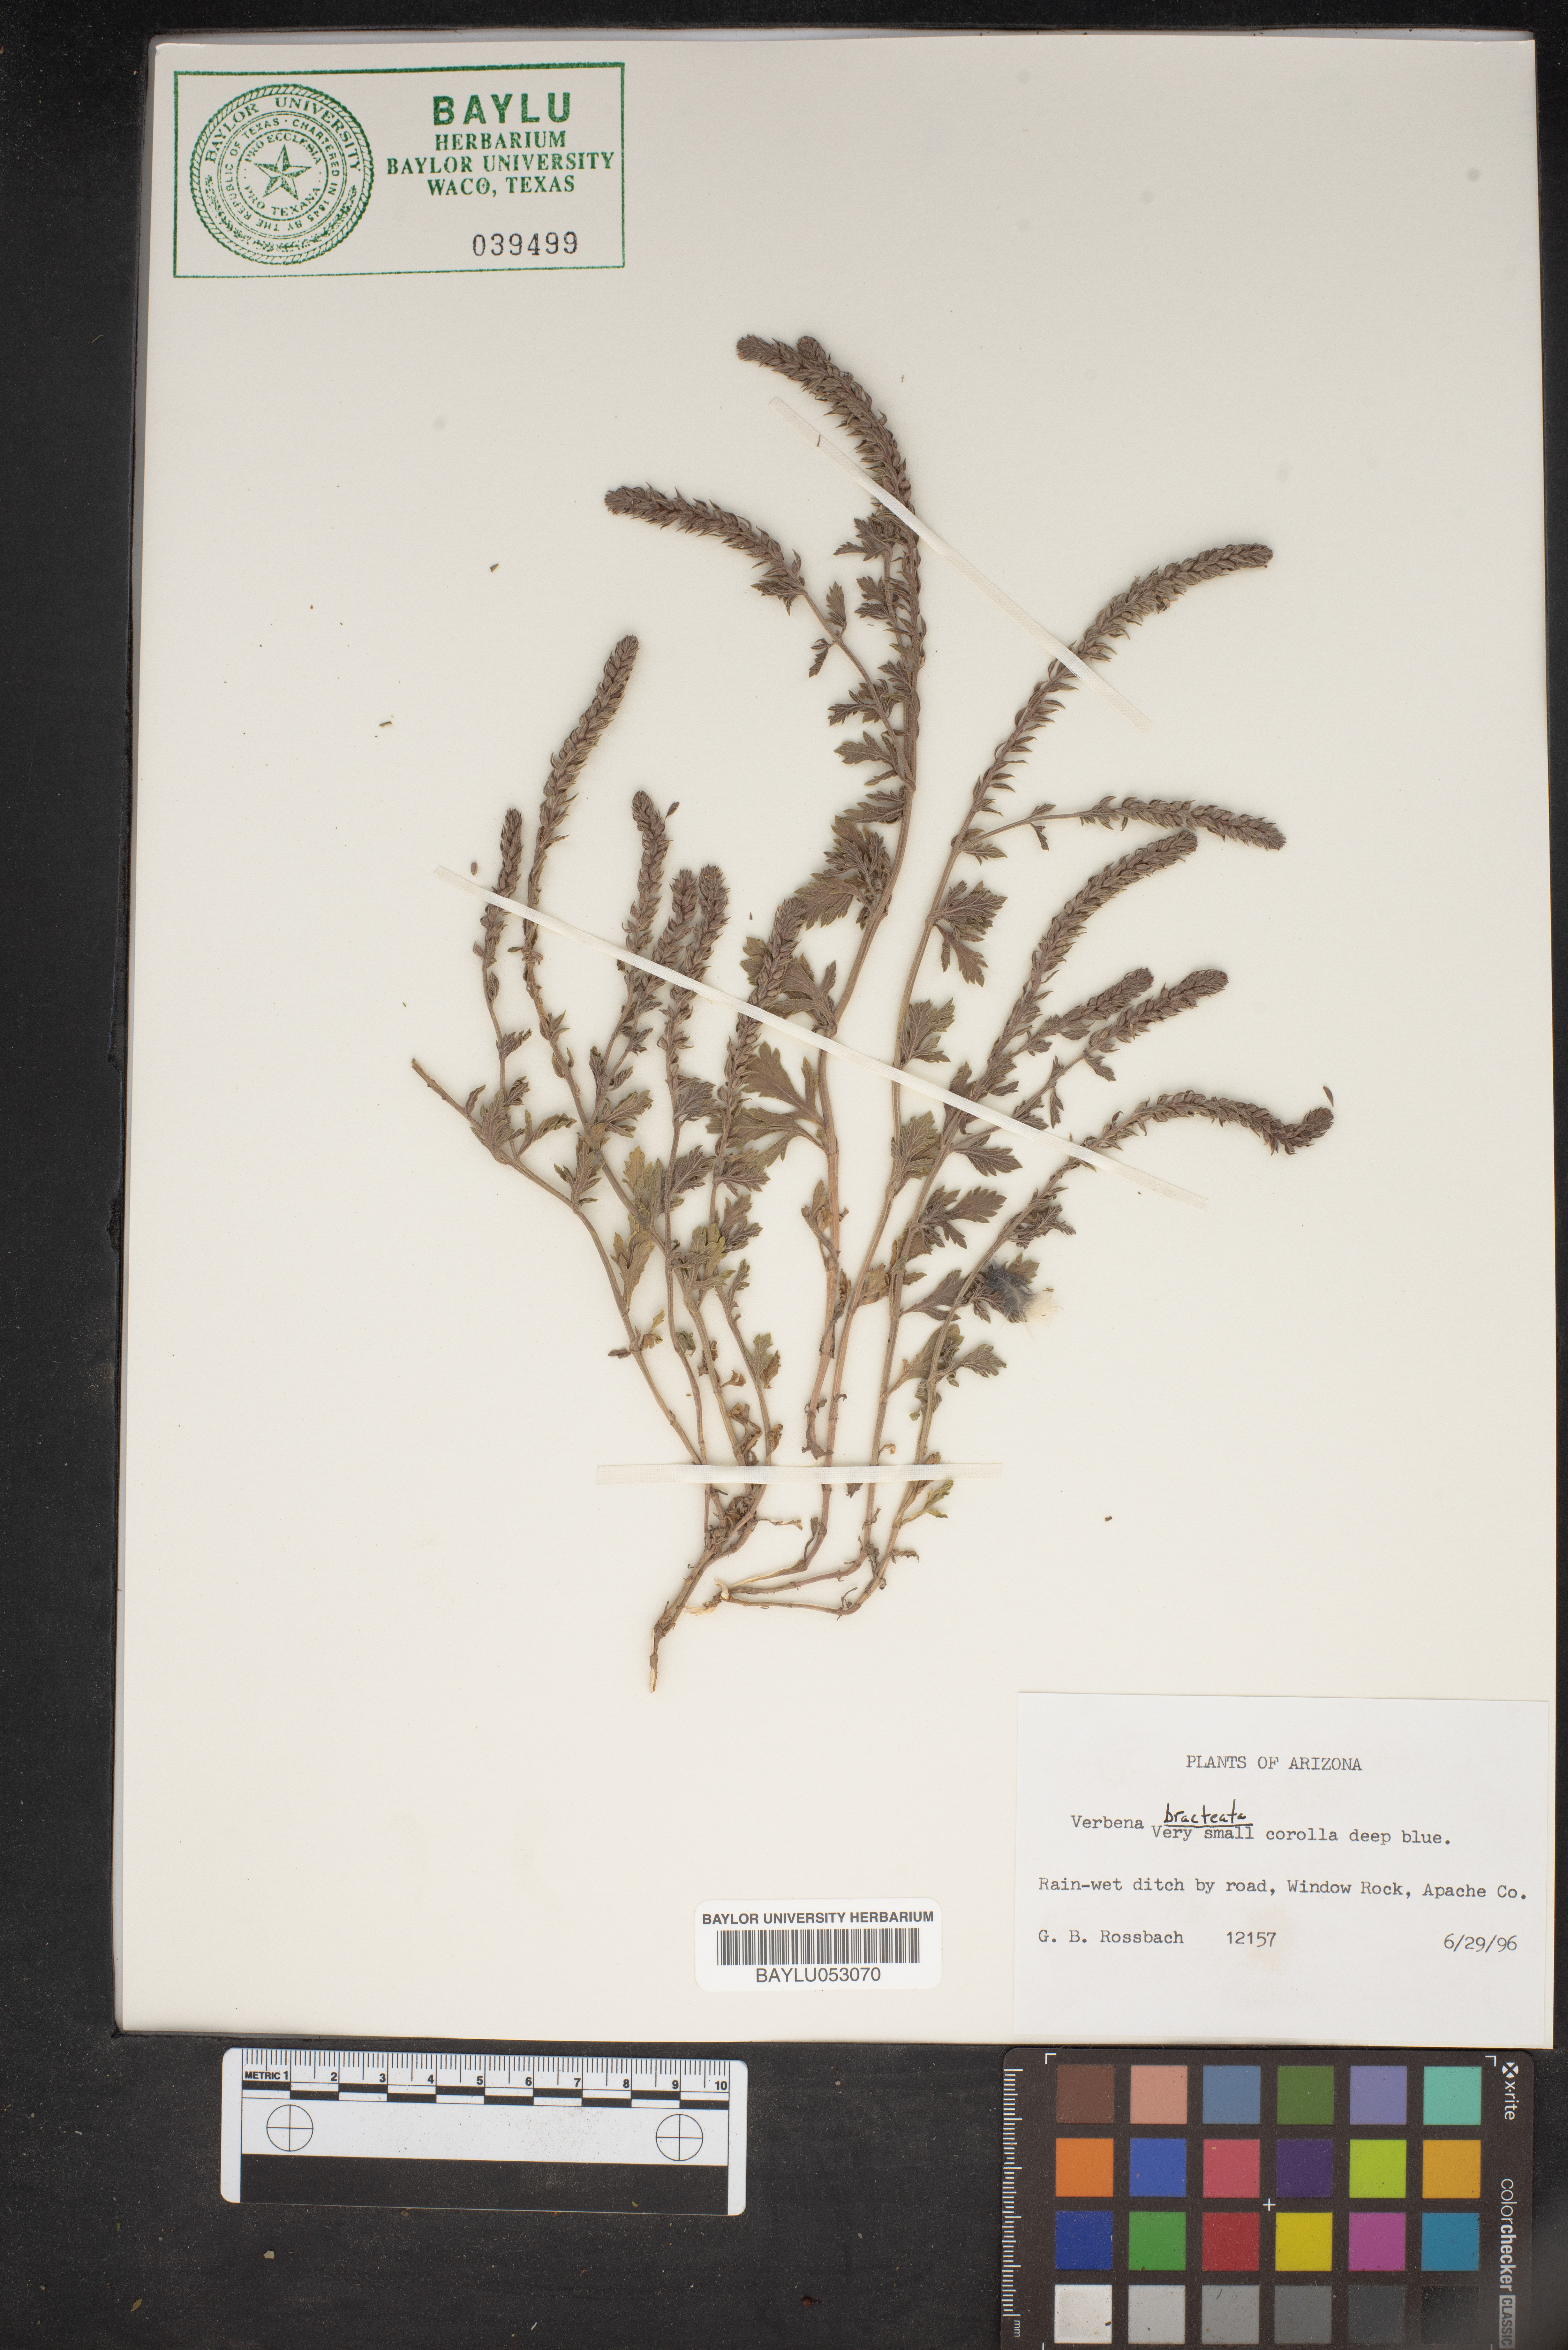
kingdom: Plantae
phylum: Tracheophyta
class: Magnoliopsida
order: Lamiales
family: Verbenaceae
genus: Verbena
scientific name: Verbena bracteata
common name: Bracted vervain
